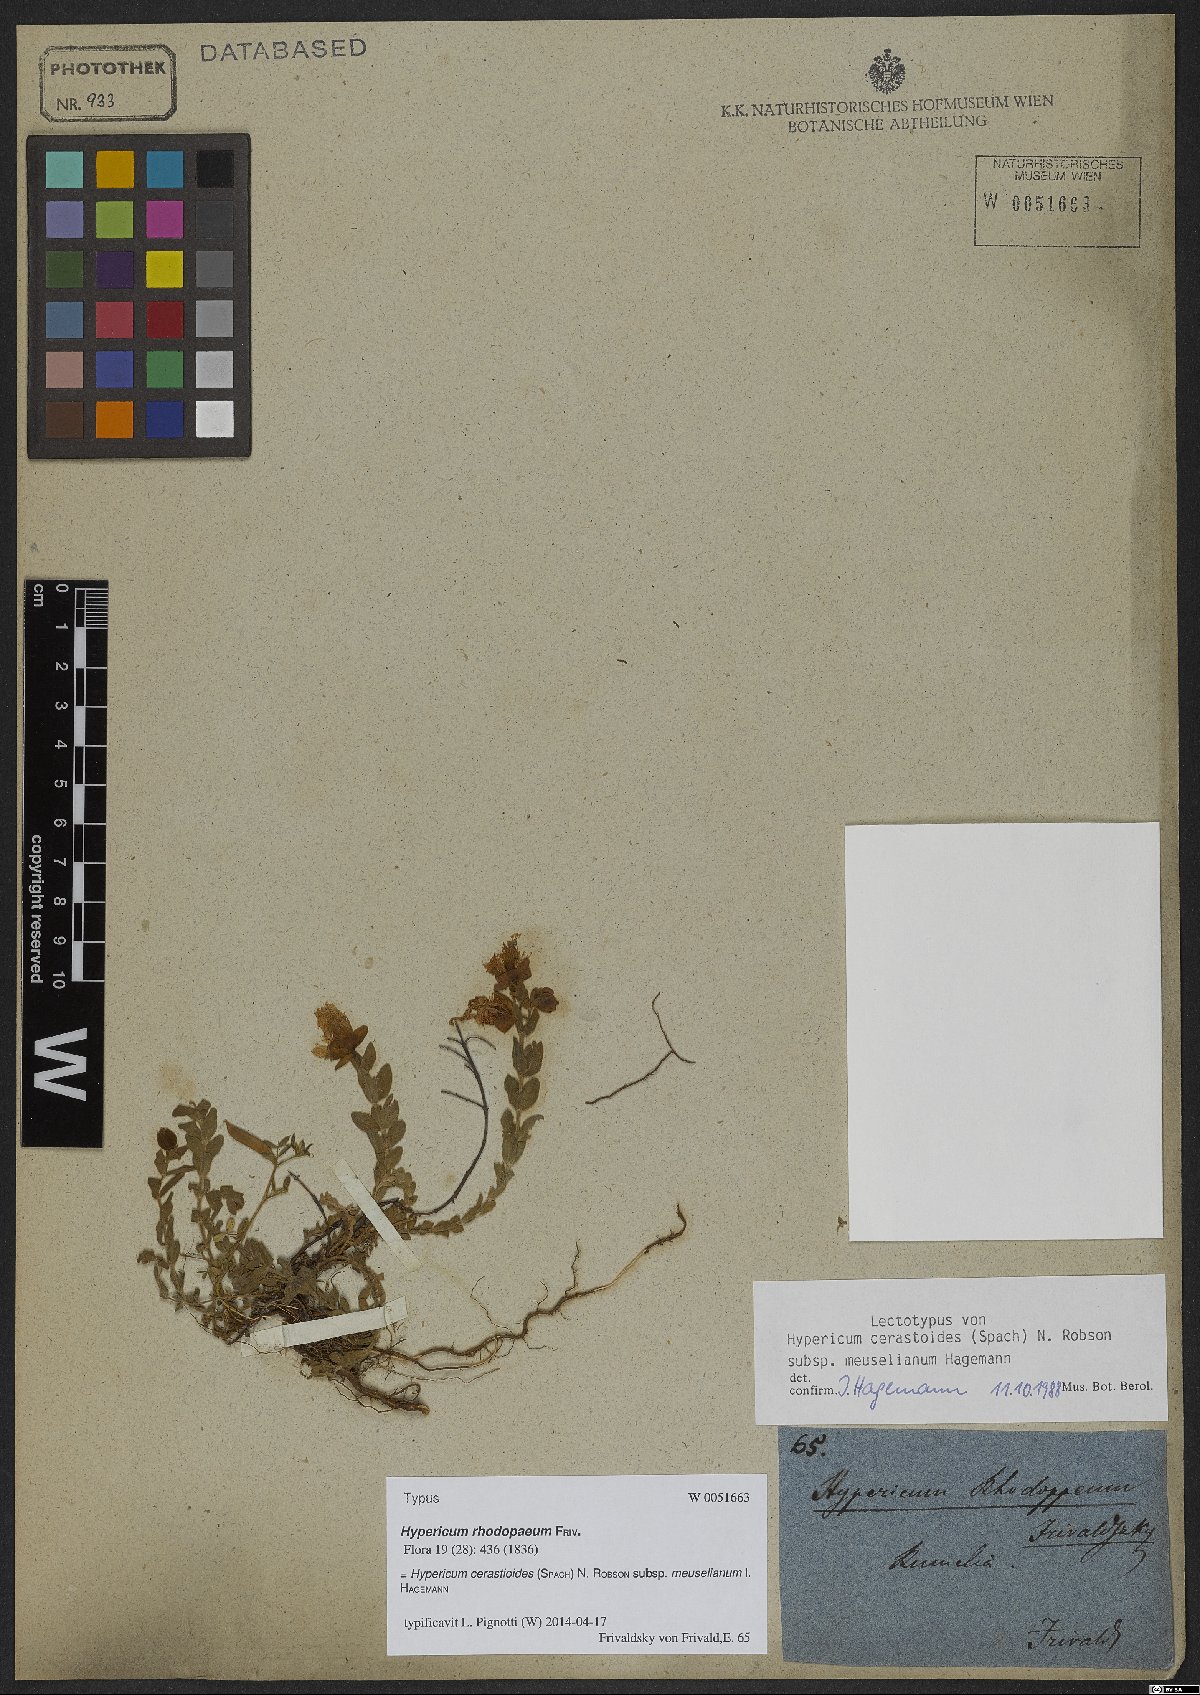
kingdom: Plantae
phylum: Tracheophyta
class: Magnoliopsida
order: Malpighiales
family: Hypericaceae
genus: Hypericum
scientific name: Hypericum cerastioides
